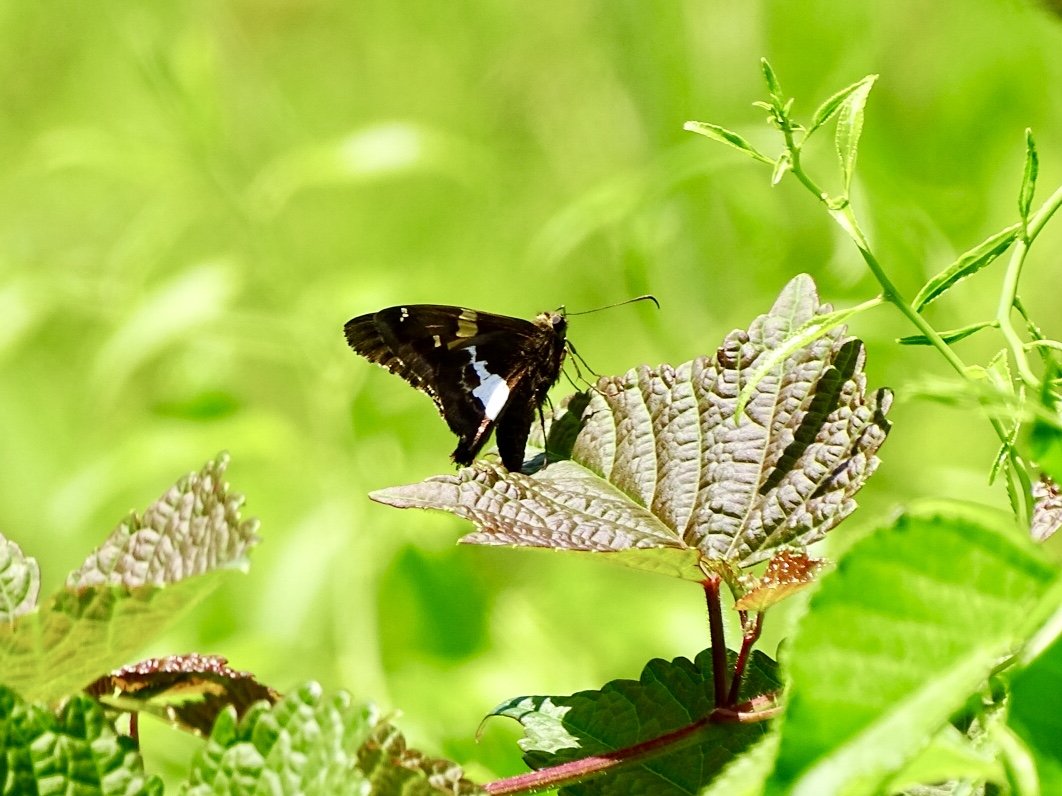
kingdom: Animalia
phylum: Arthropoda
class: Insecta
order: Lepidoptera
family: Hesperiidae
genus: Epargyreus
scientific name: Epargyreus clarus
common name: Silver-spotted Skipper
